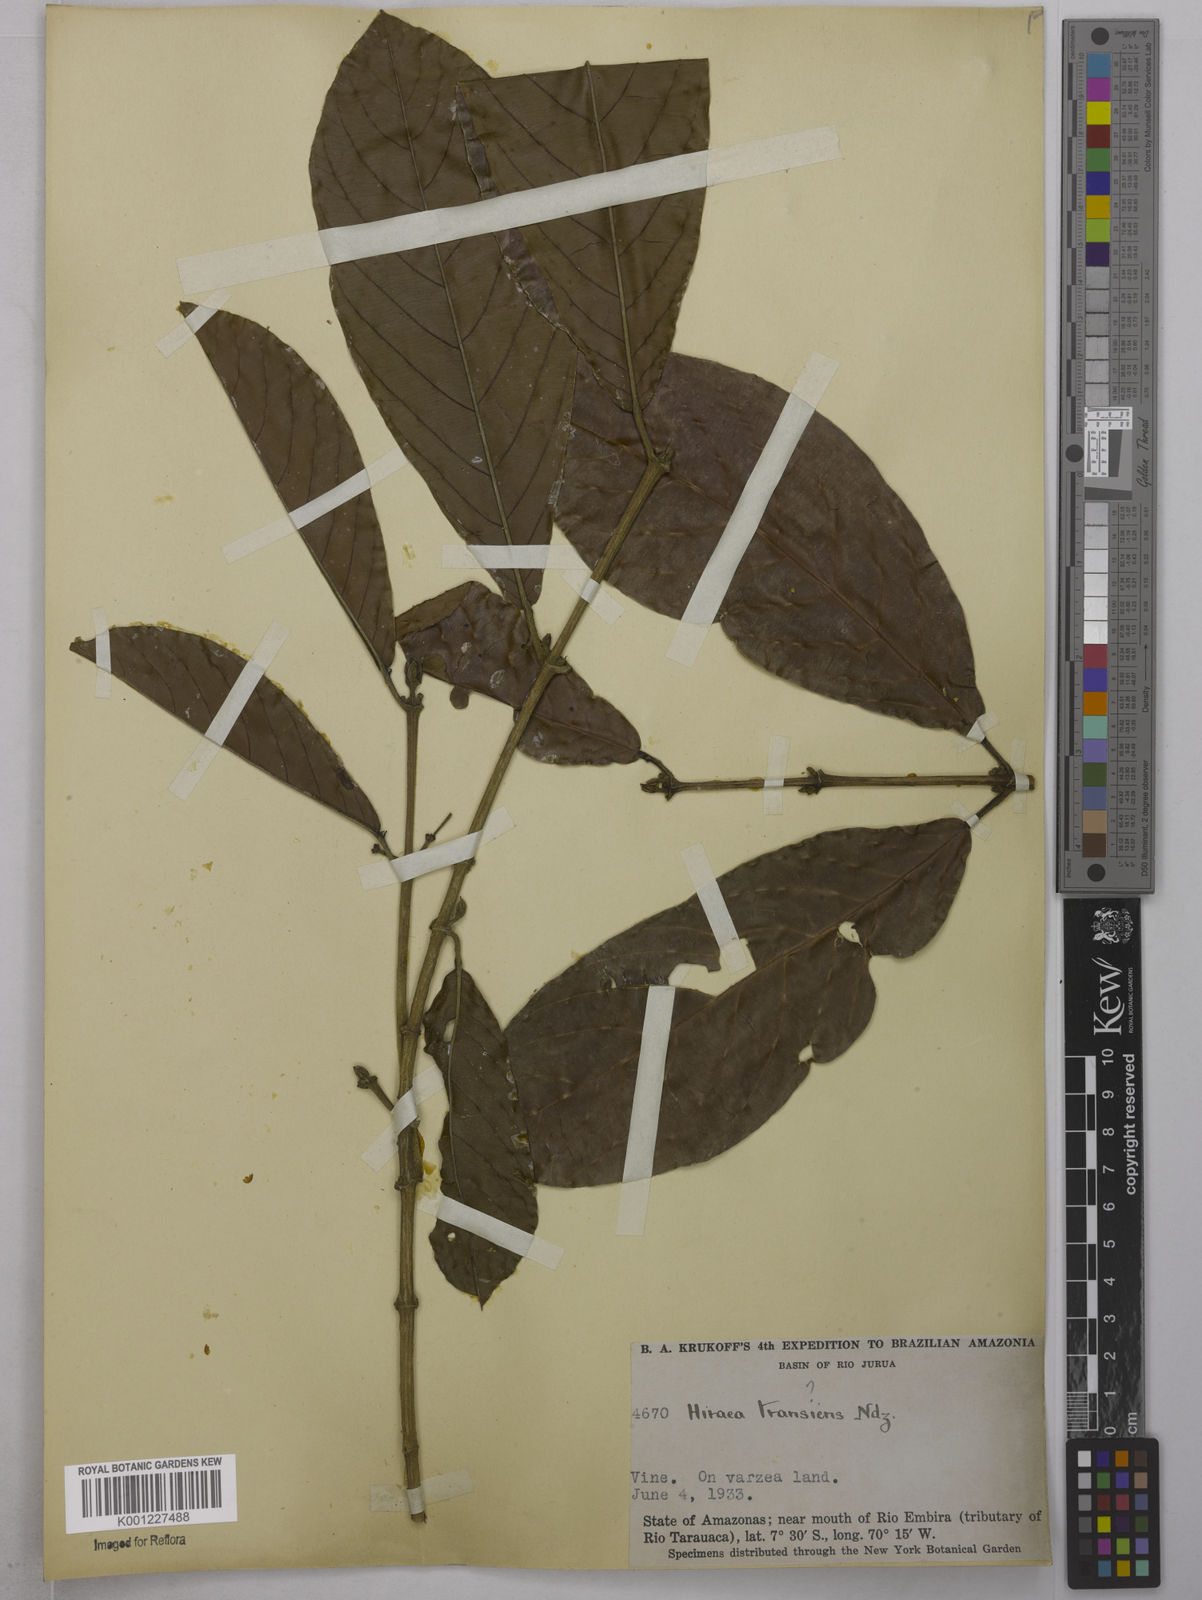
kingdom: Plantae
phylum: Tracheophyta
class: Magnoliopsida
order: Malpighiales
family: Malpighiaceae
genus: Hiraea
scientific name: Hiraea transiens
